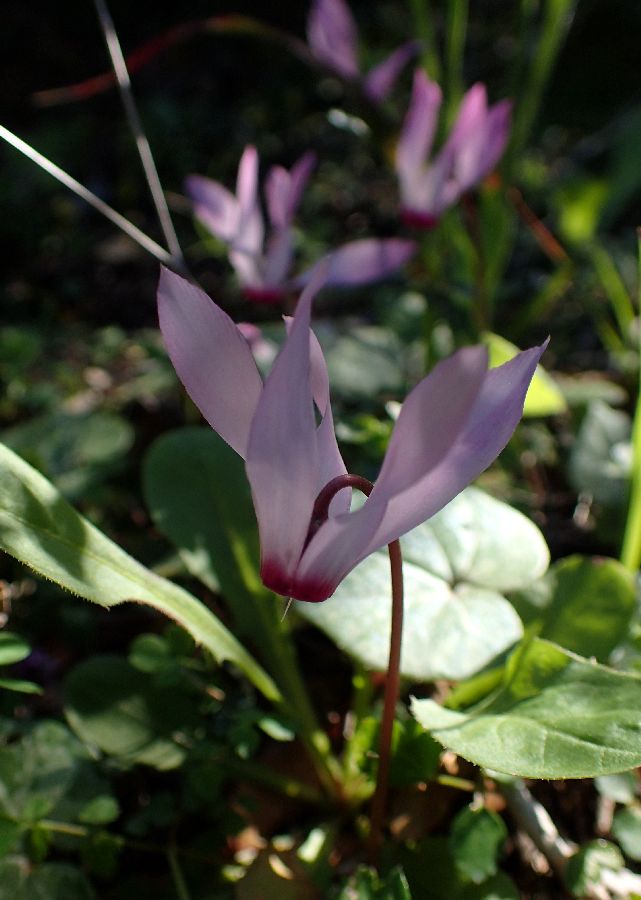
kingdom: Plantae
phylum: Tracheophyta
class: Magnoliopsida
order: Ericales
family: Primulaceae
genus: Cyclamen
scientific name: Cyclamen repandum
